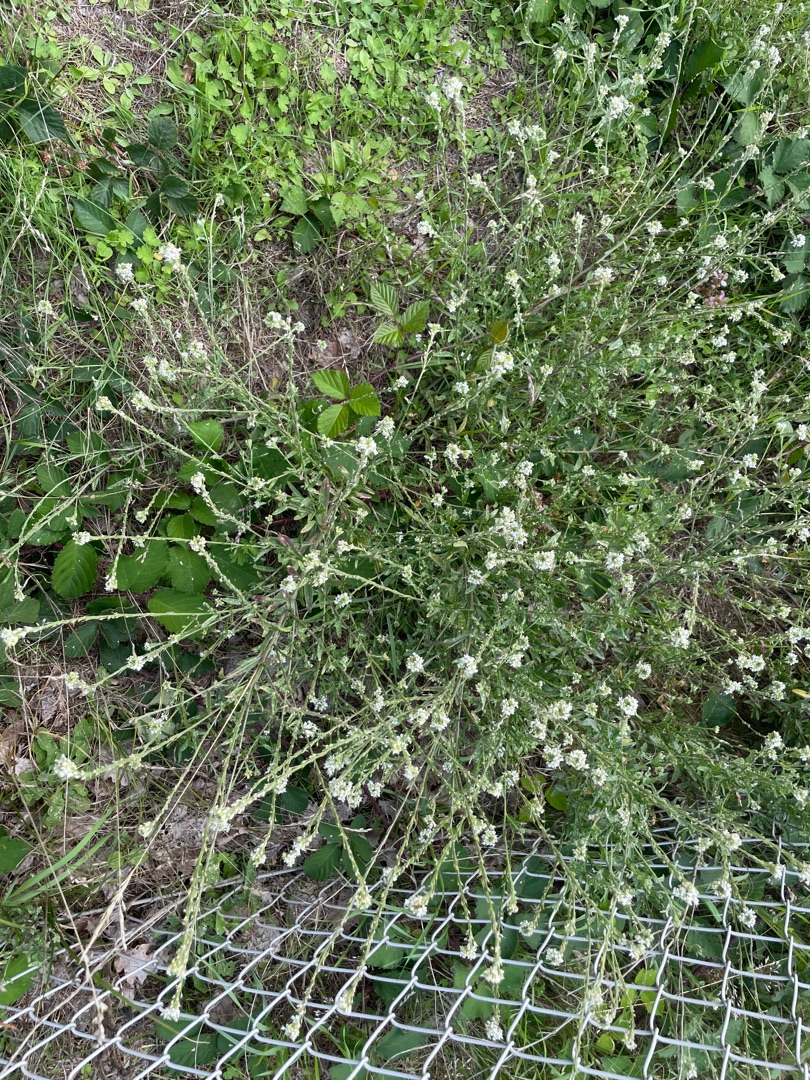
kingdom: Plantae
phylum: Tracheophyta
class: Magnoliopsida
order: Brassicales
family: Brassicaceae
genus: Berteroa
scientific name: Berteroa incana
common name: Kløvplade
